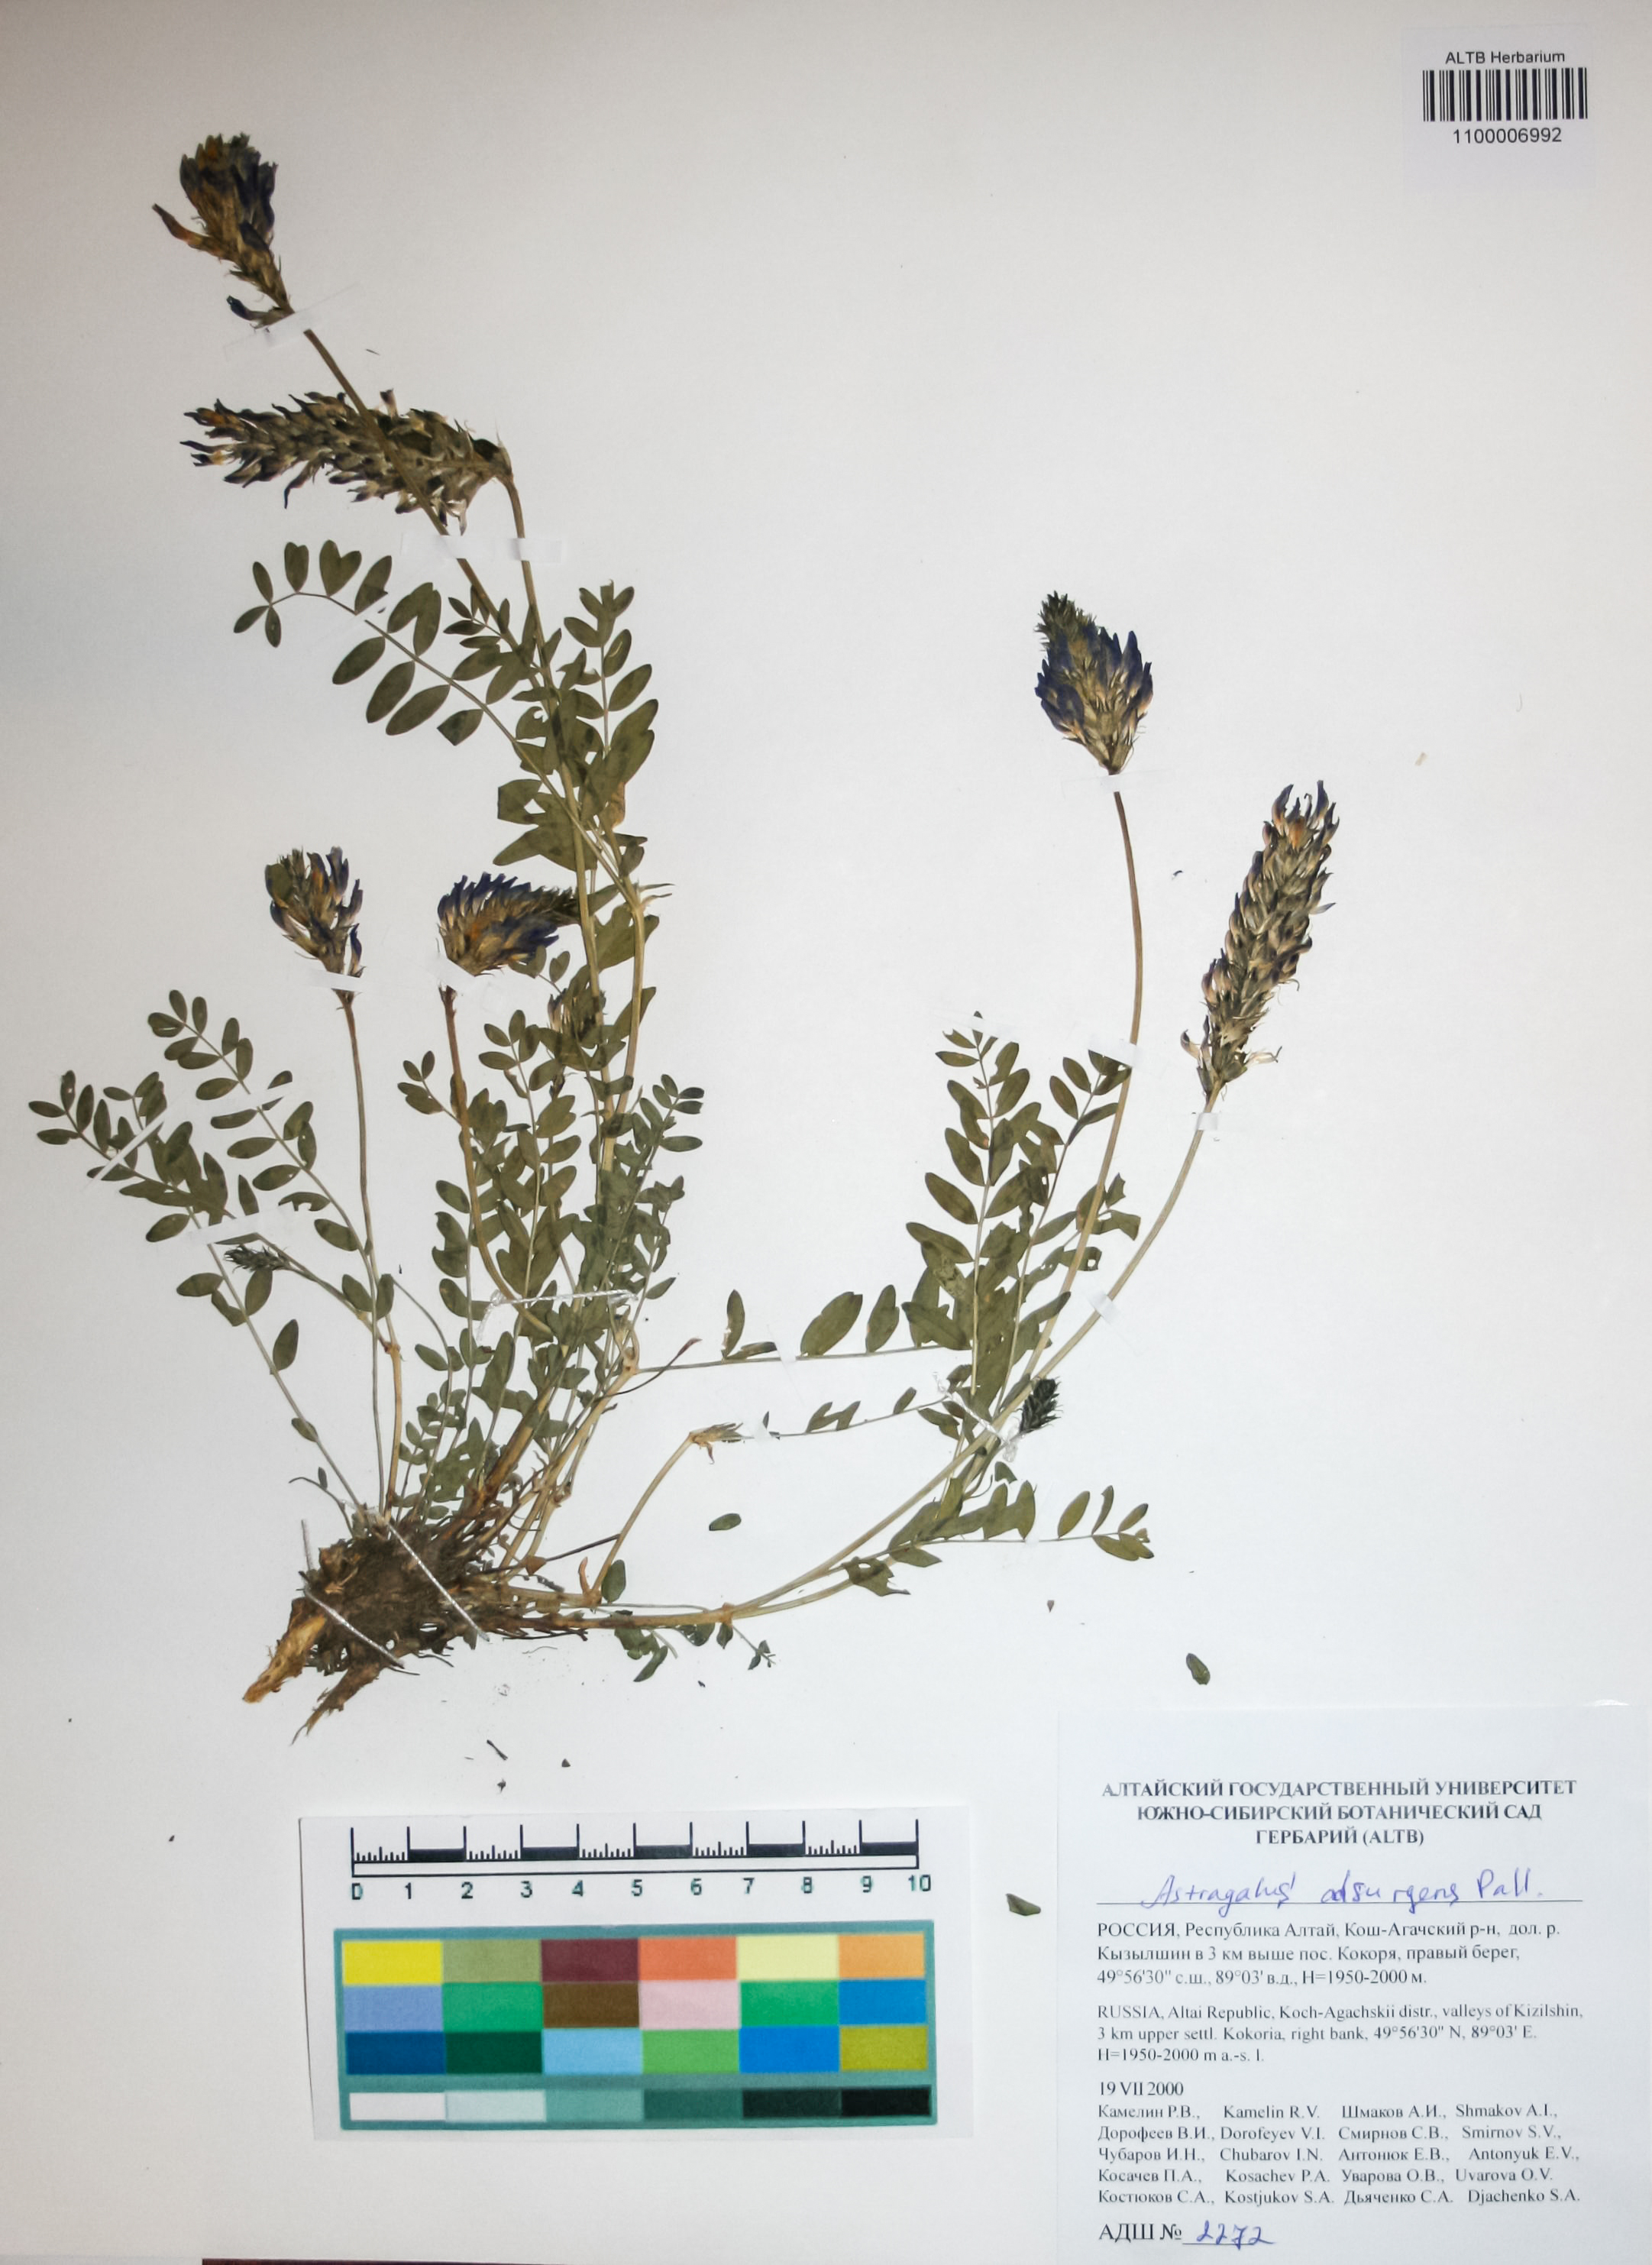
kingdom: Plantae
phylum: Tracheophyta
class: Magnoliopsida
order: Fabales
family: Fabaceae
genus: Astragalus
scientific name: Astragalus laxmannii
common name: Laxmann's milk-vetch
